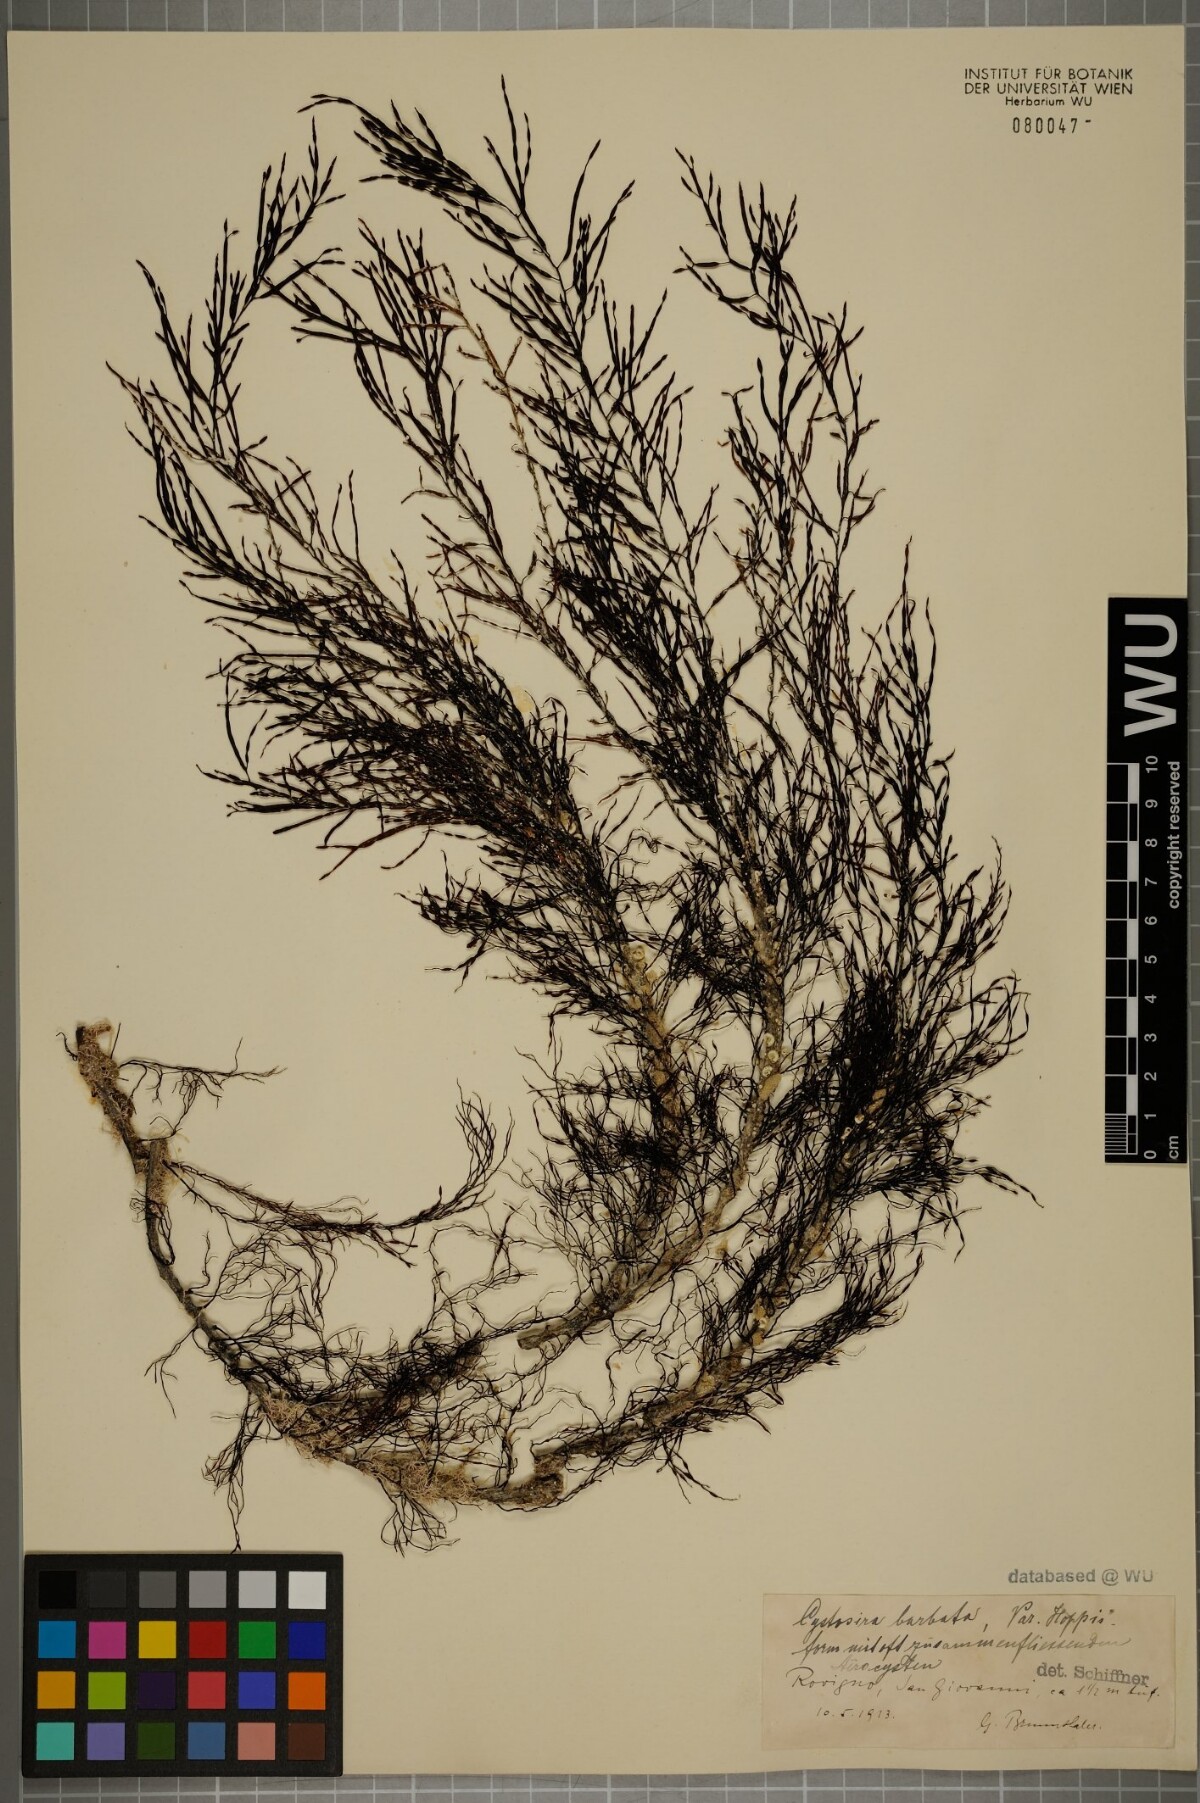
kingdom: Chromista
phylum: Ochrophyta
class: Phaeophyceae
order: Fucales
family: Sargassaceae
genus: Cystoseira
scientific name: Cystoseira Gongolaria barbata
